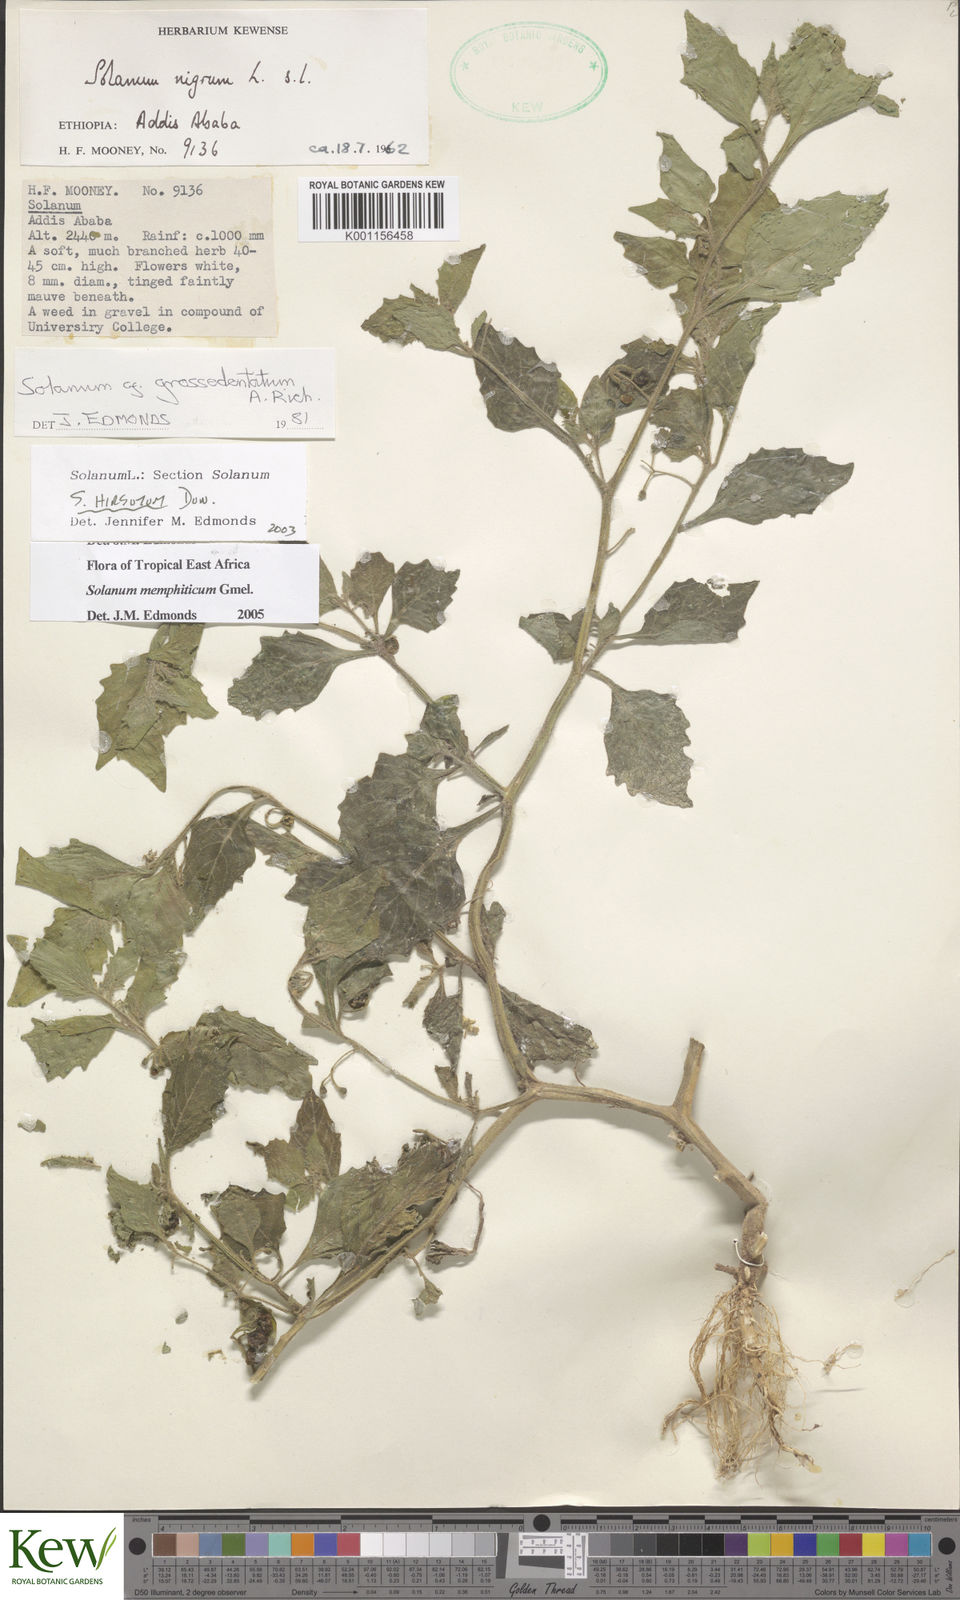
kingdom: Plantae
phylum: Tracheophyta
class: Magnoliopsida
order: Solanales
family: Solanaceae
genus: Solanum
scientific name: Solanum memphiticum
